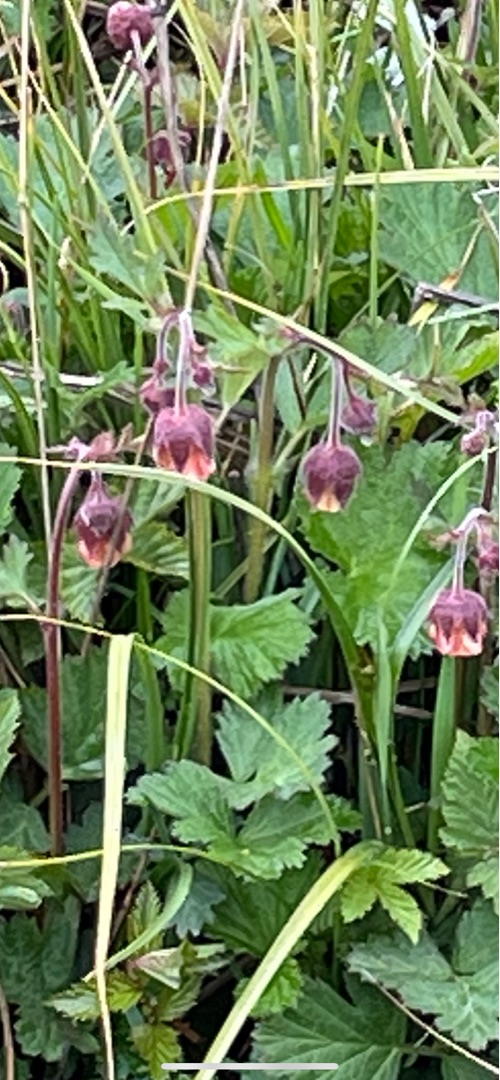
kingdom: Plantae
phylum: Tracheophyta
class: Magnoliopsida
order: Rosales
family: Rosaceae
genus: Geum
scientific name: Geum rivale
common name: Eng-nellikerod
